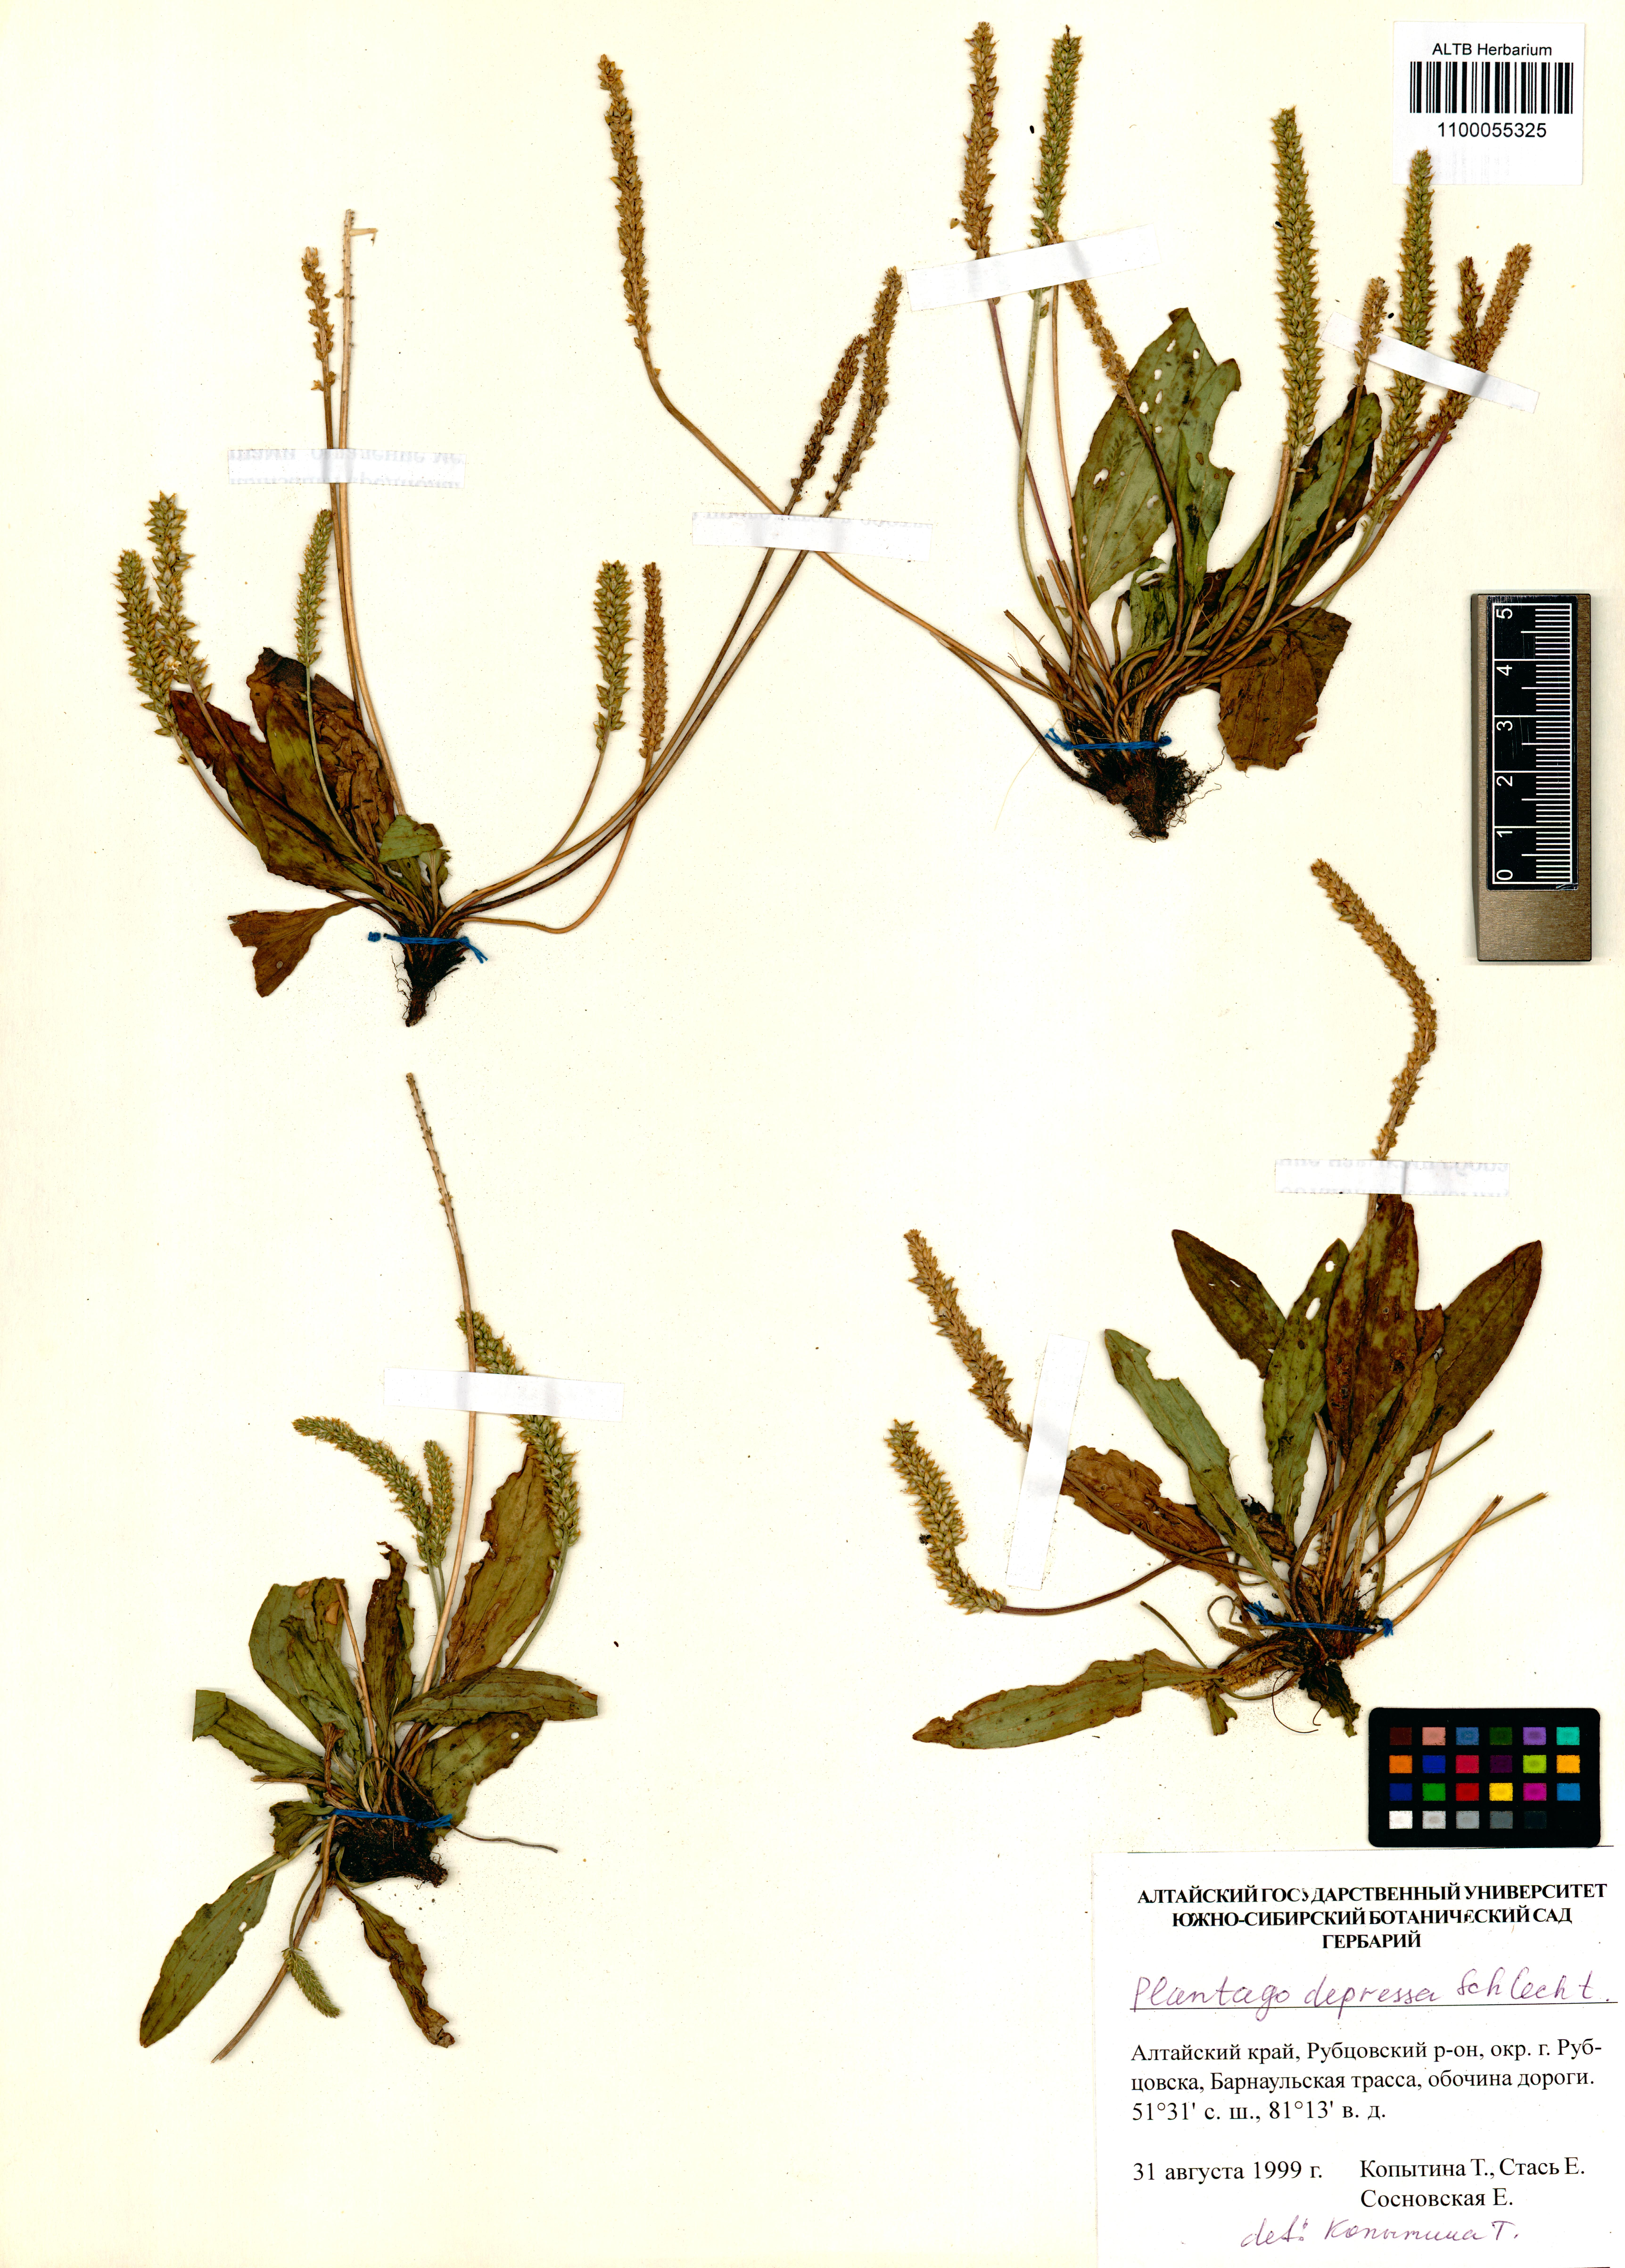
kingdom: Plantae
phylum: Tracheophyta
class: Magnoliopsida
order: Lamiales
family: Plantaginaceae
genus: Plantago
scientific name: Plantago depressa
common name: Depressed plantain
